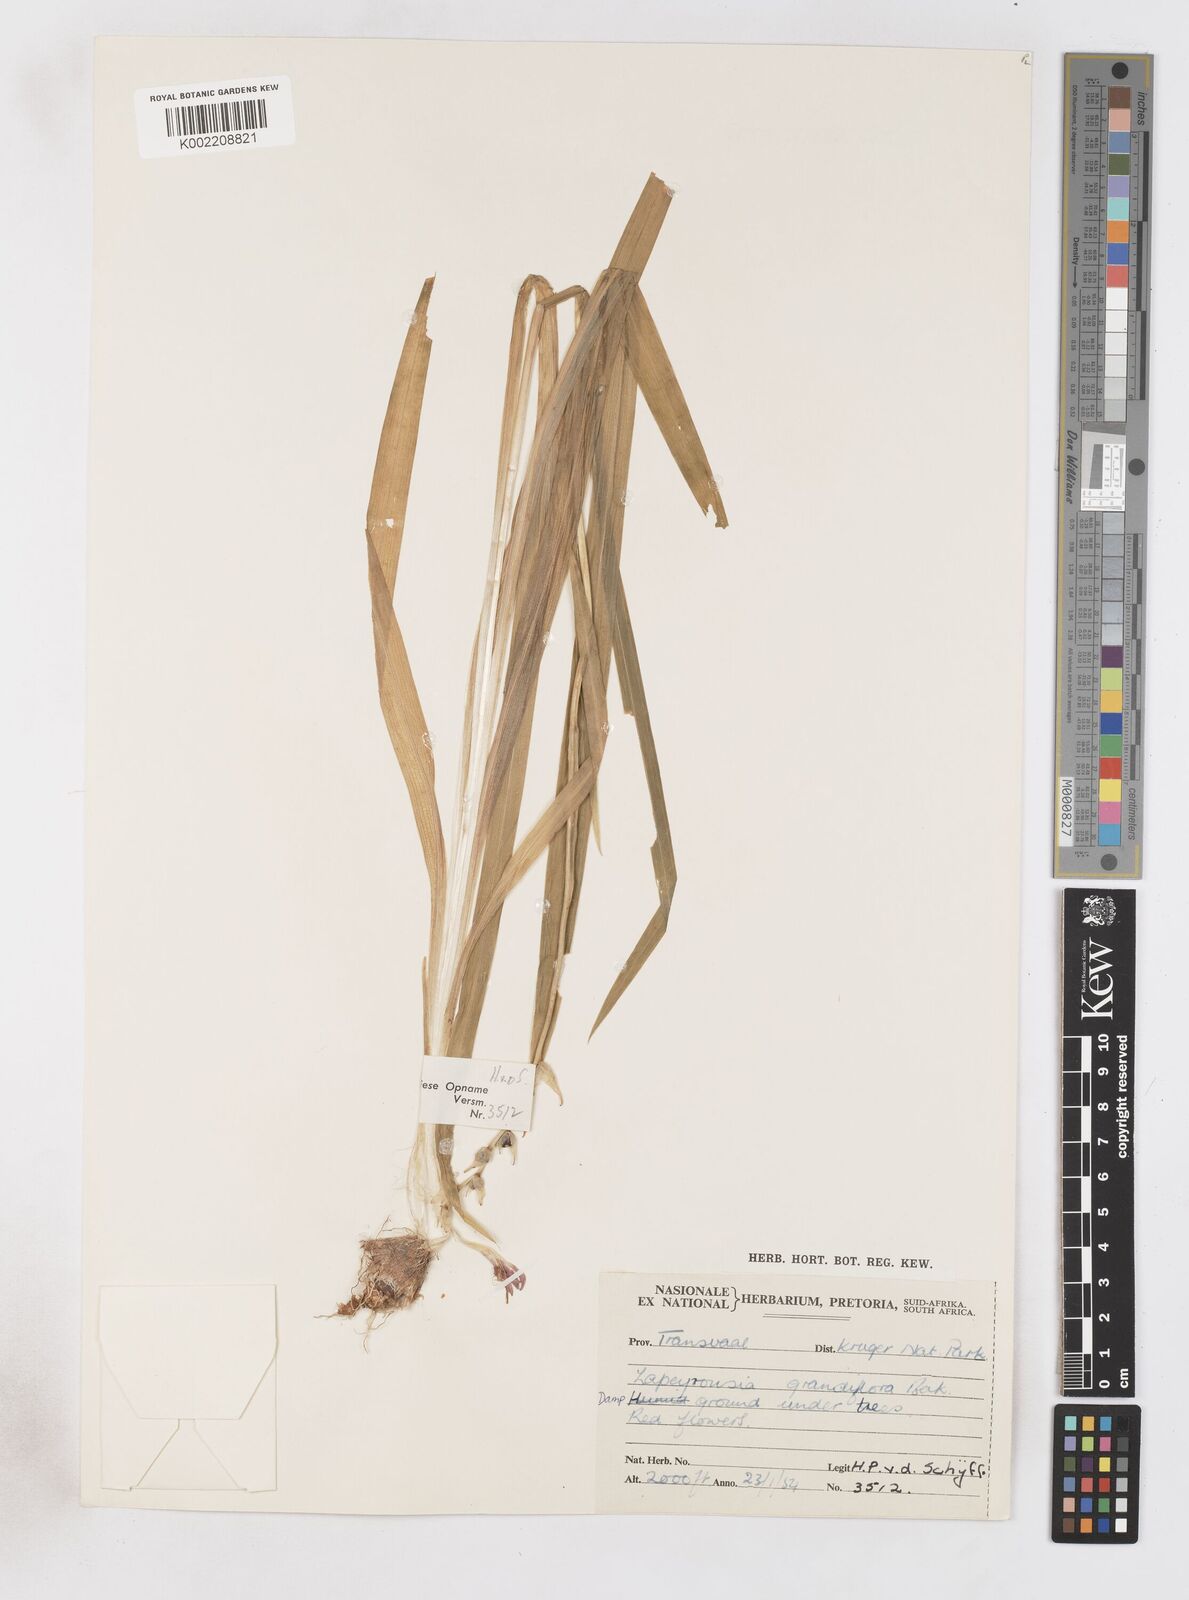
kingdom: Plantae
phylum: Tracheophyta
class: Liliopsida
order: Asparagales
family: Iridaceae
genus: Freesia
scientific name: Freesia grandiflora
